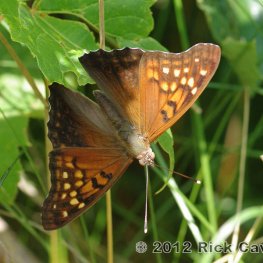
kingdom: Animalia
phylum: Arthropoda
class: Insecta
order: Lepidoptera
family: Nymphalidae
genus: Asterocampa
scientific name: Asterocampa clyton
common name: Tawny Emperor
